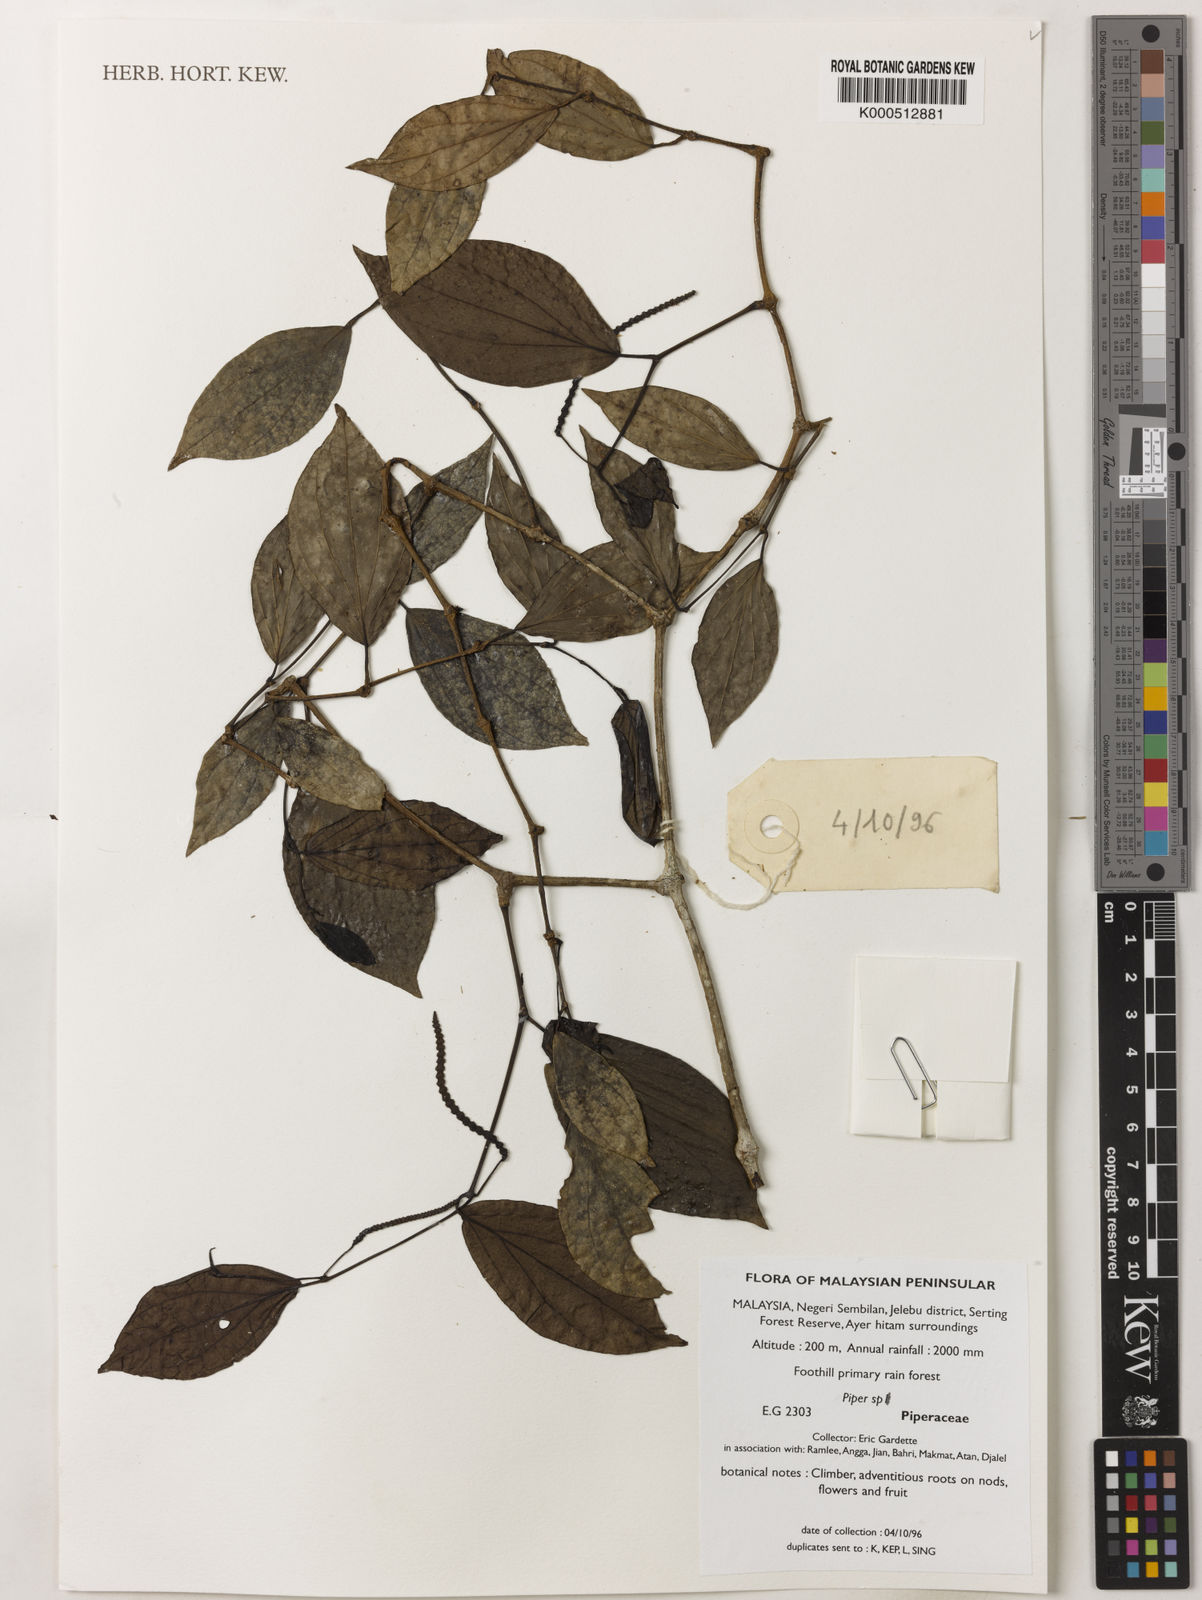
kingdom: Plantae
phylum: Tracheophyta
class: Magnoliopsida
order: Piperales
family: Piperaceae
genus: Piper
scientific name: Piper
